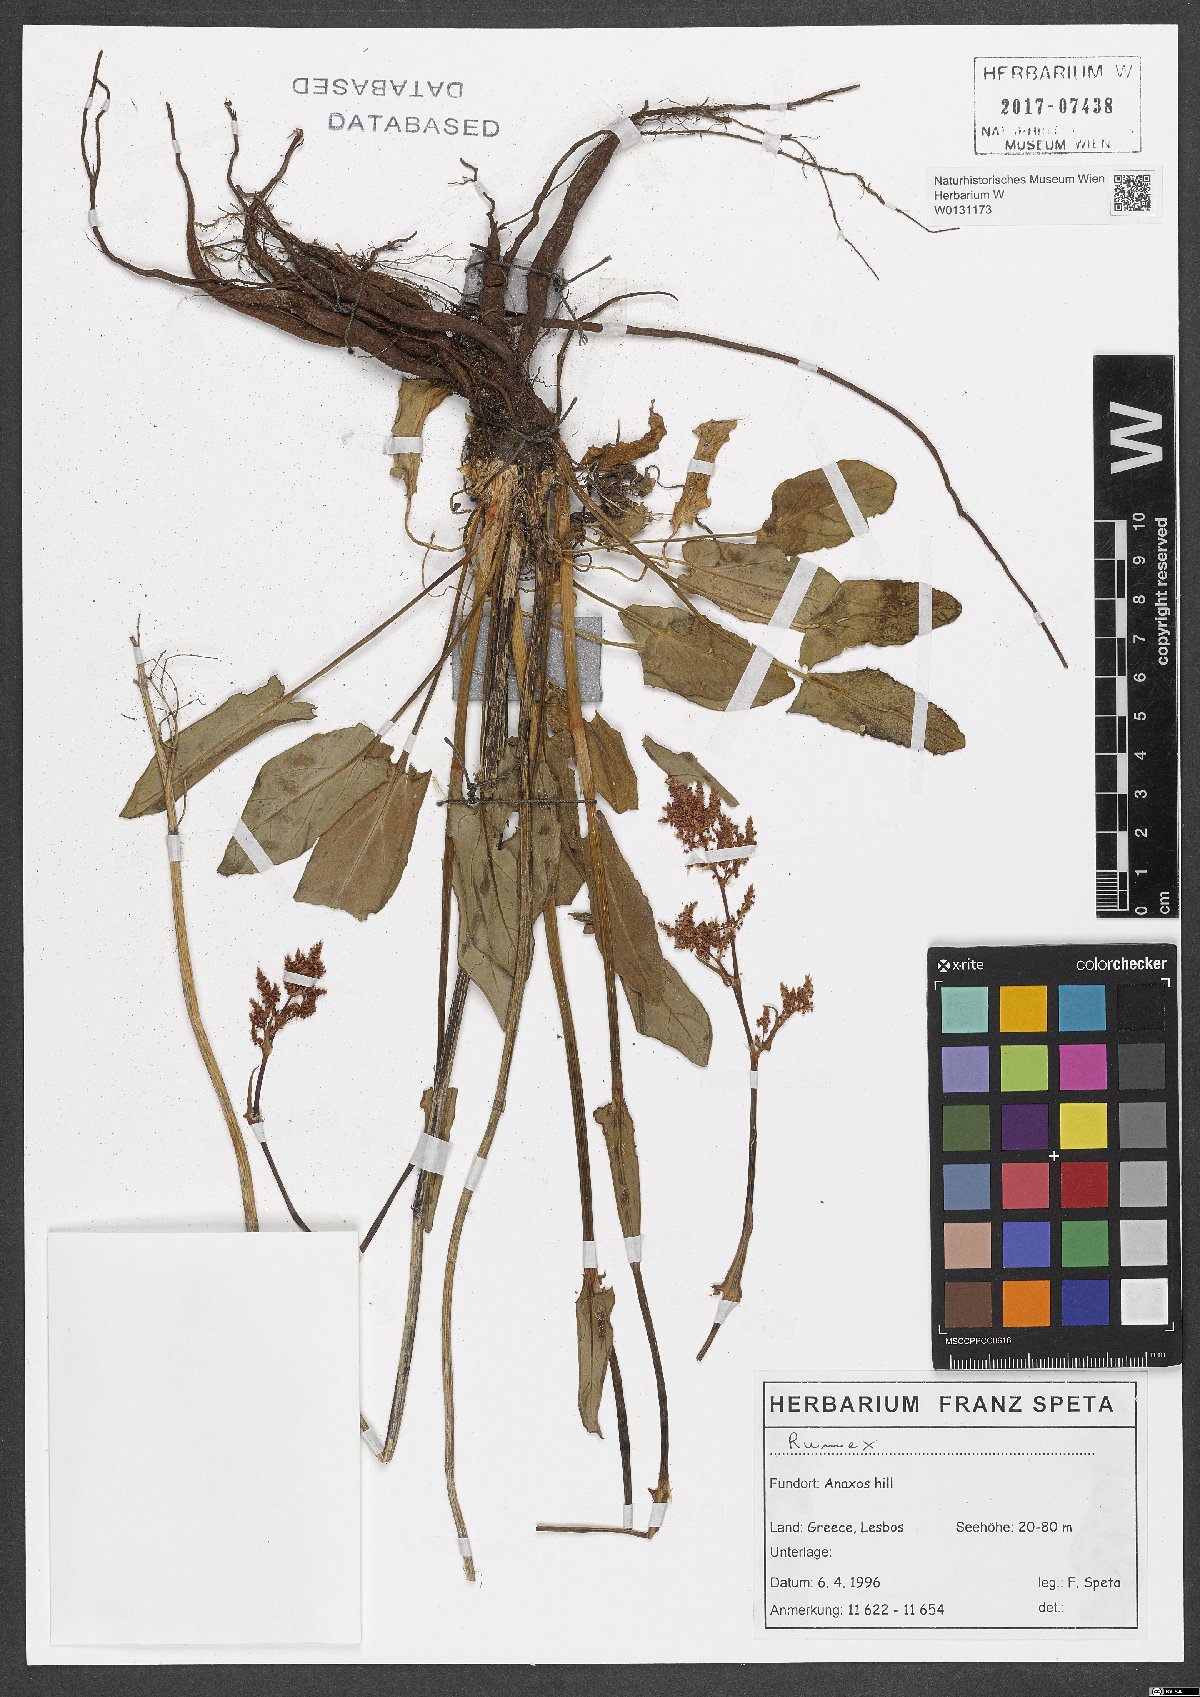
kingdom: Plantae
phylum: Tracheophyta
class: Magnoliopsida
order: Caryophyllales
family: Polygonaceae
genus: Rumex
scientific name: Rumex
